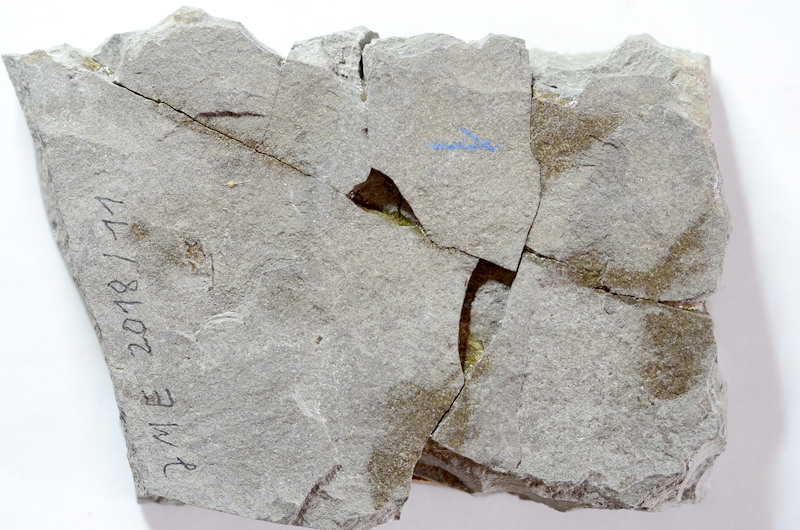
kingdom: Animalia
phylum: Chordata
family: Leptolepididae
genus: Leptolepis
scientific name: Leptolepis coryphaenoides
